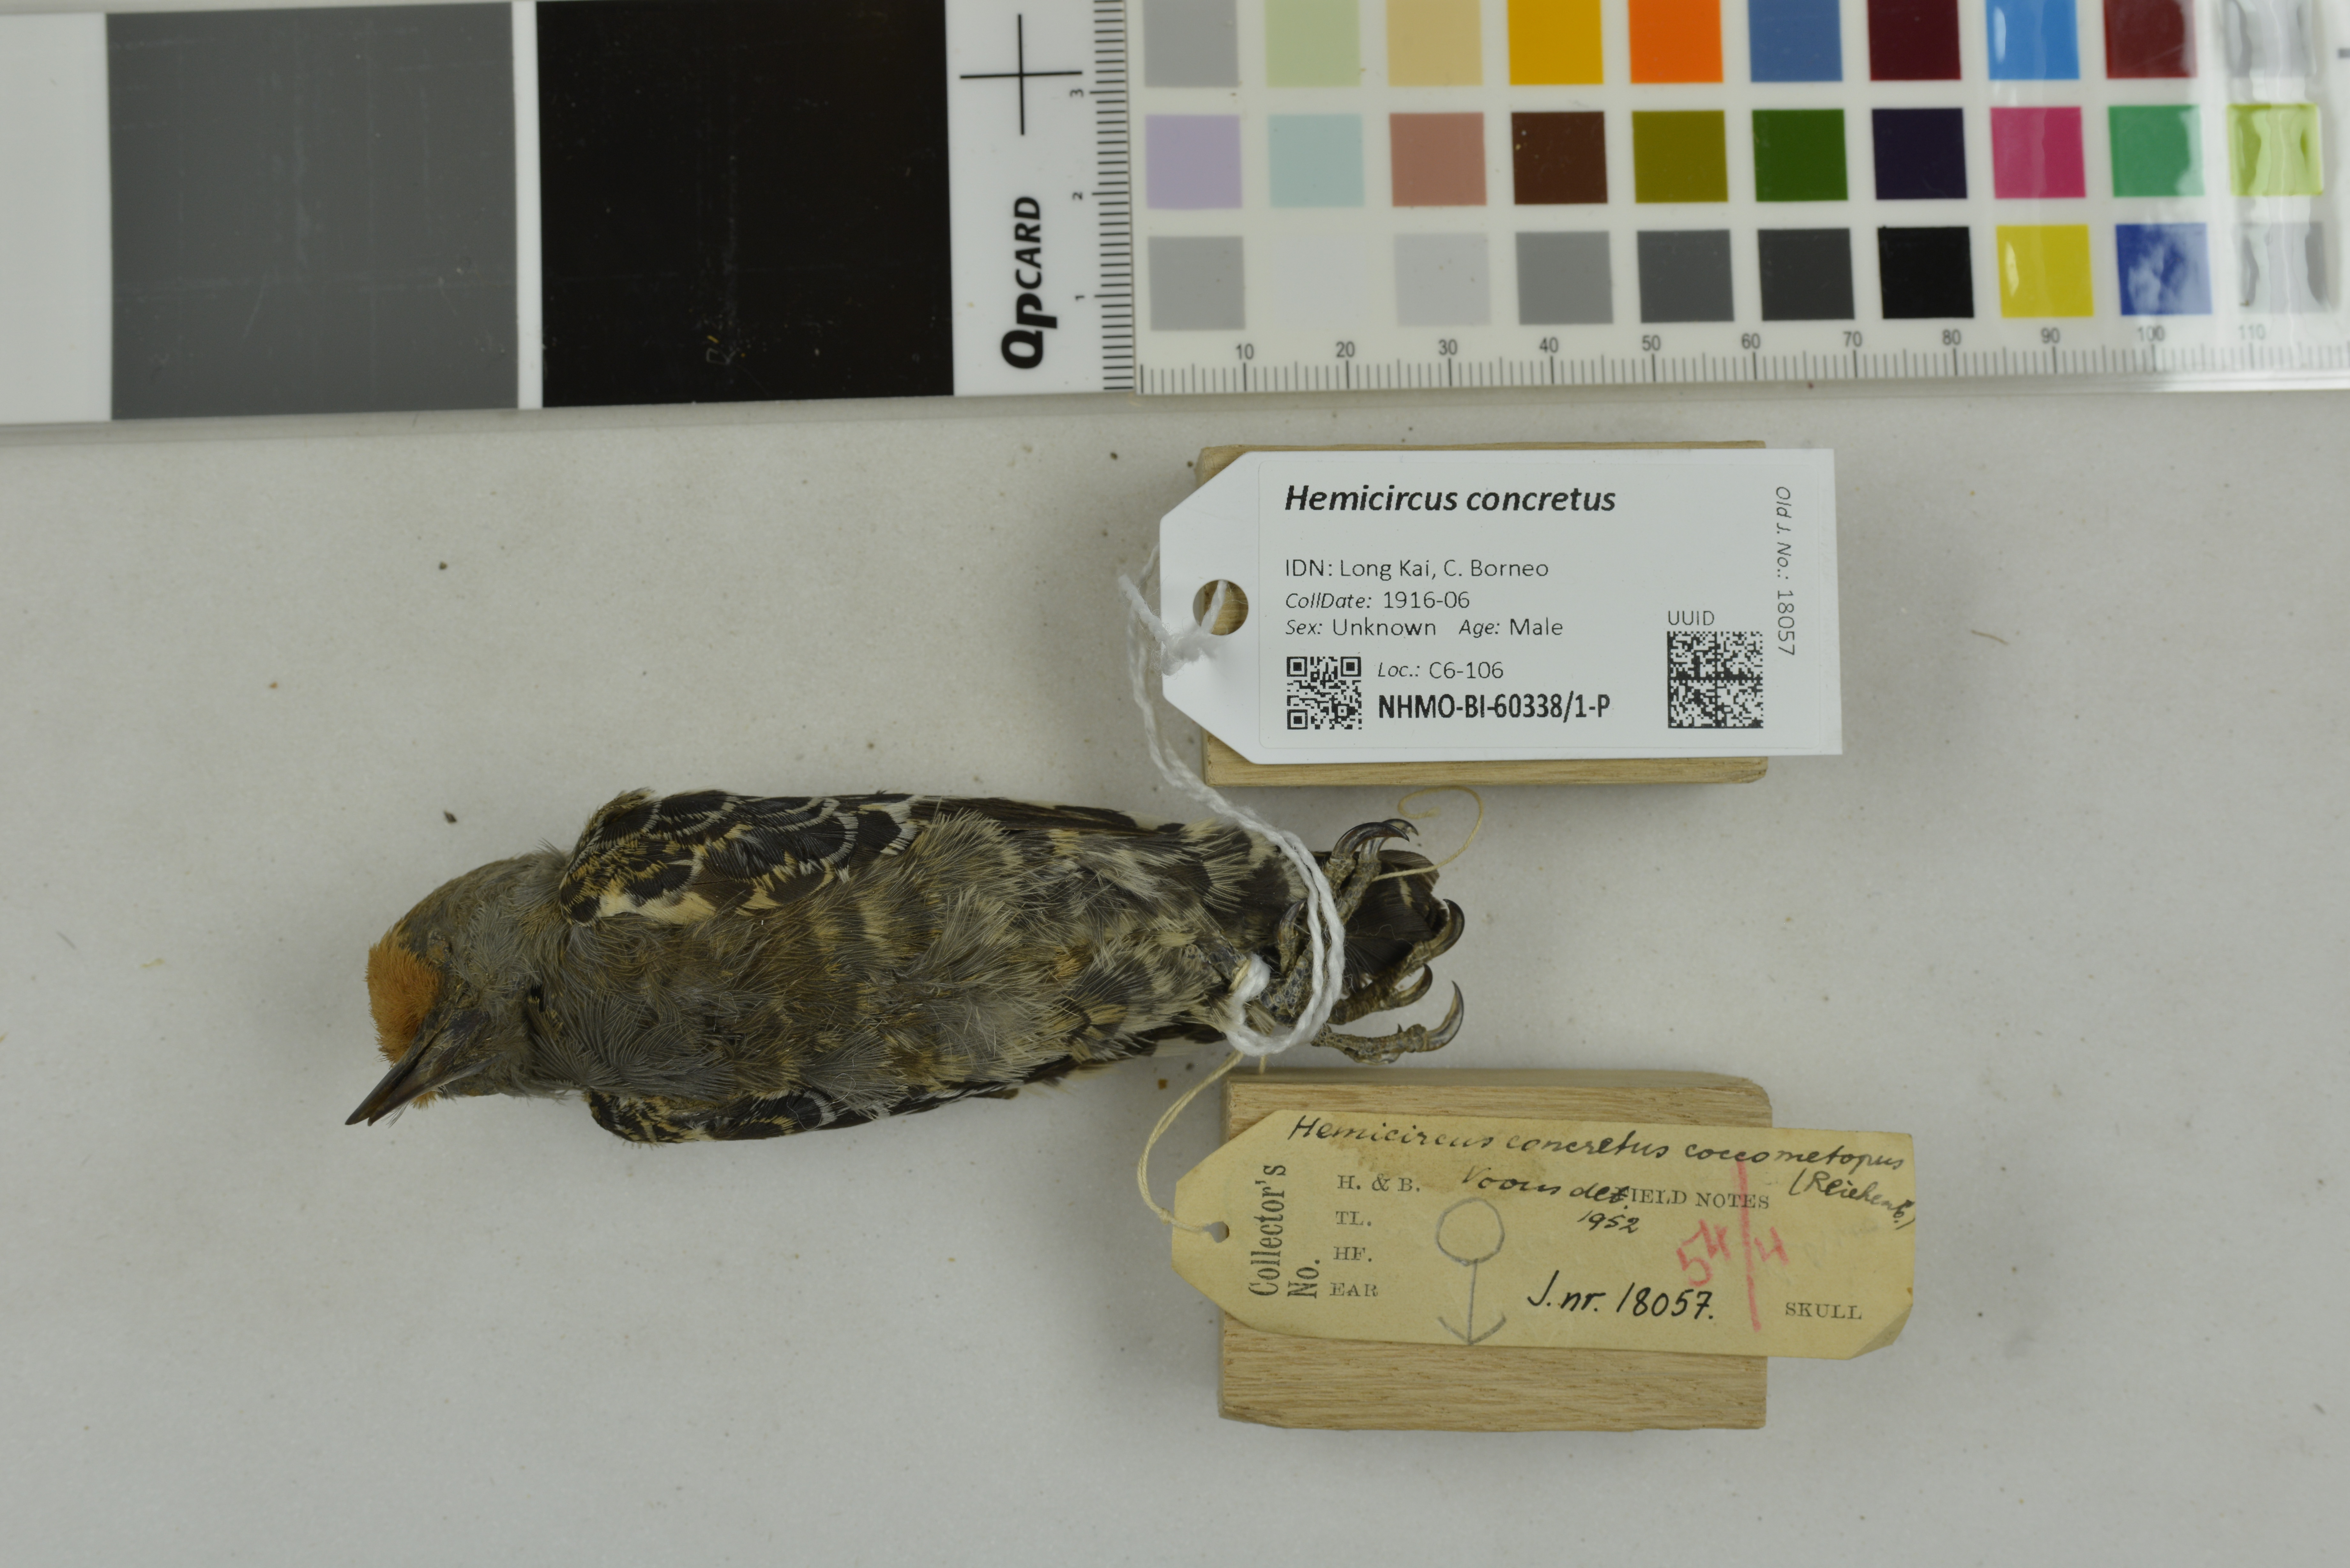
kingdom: Animalia
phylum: Chordata
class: Aves
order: Piciformes
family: Picidae
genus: Hemicircus
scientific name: Hemicircus concretus
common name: Grey-and-buff woodpecker
